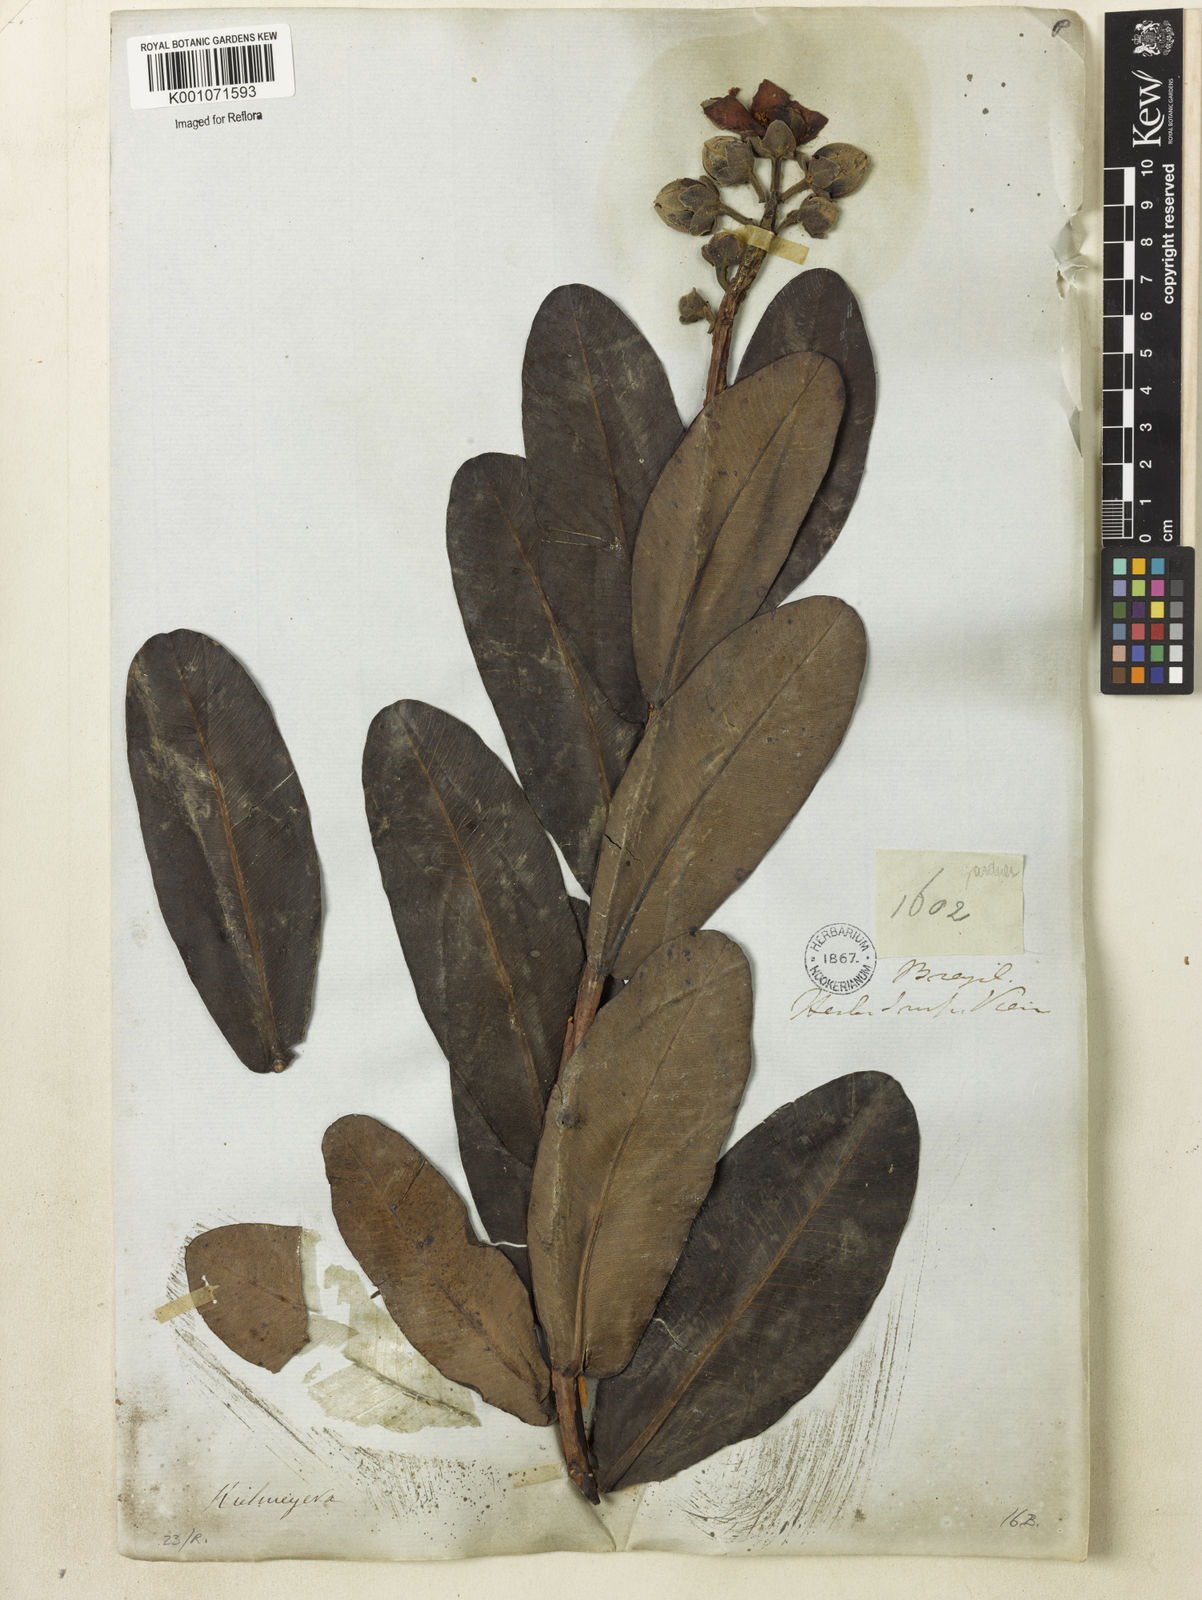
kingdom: Plantae
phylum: Tracheophyta
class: Magnoliopsida
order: Malpighiales
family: Calophyllaceae
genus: Kielmeyera
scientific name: Kielmeyera rubriflora
